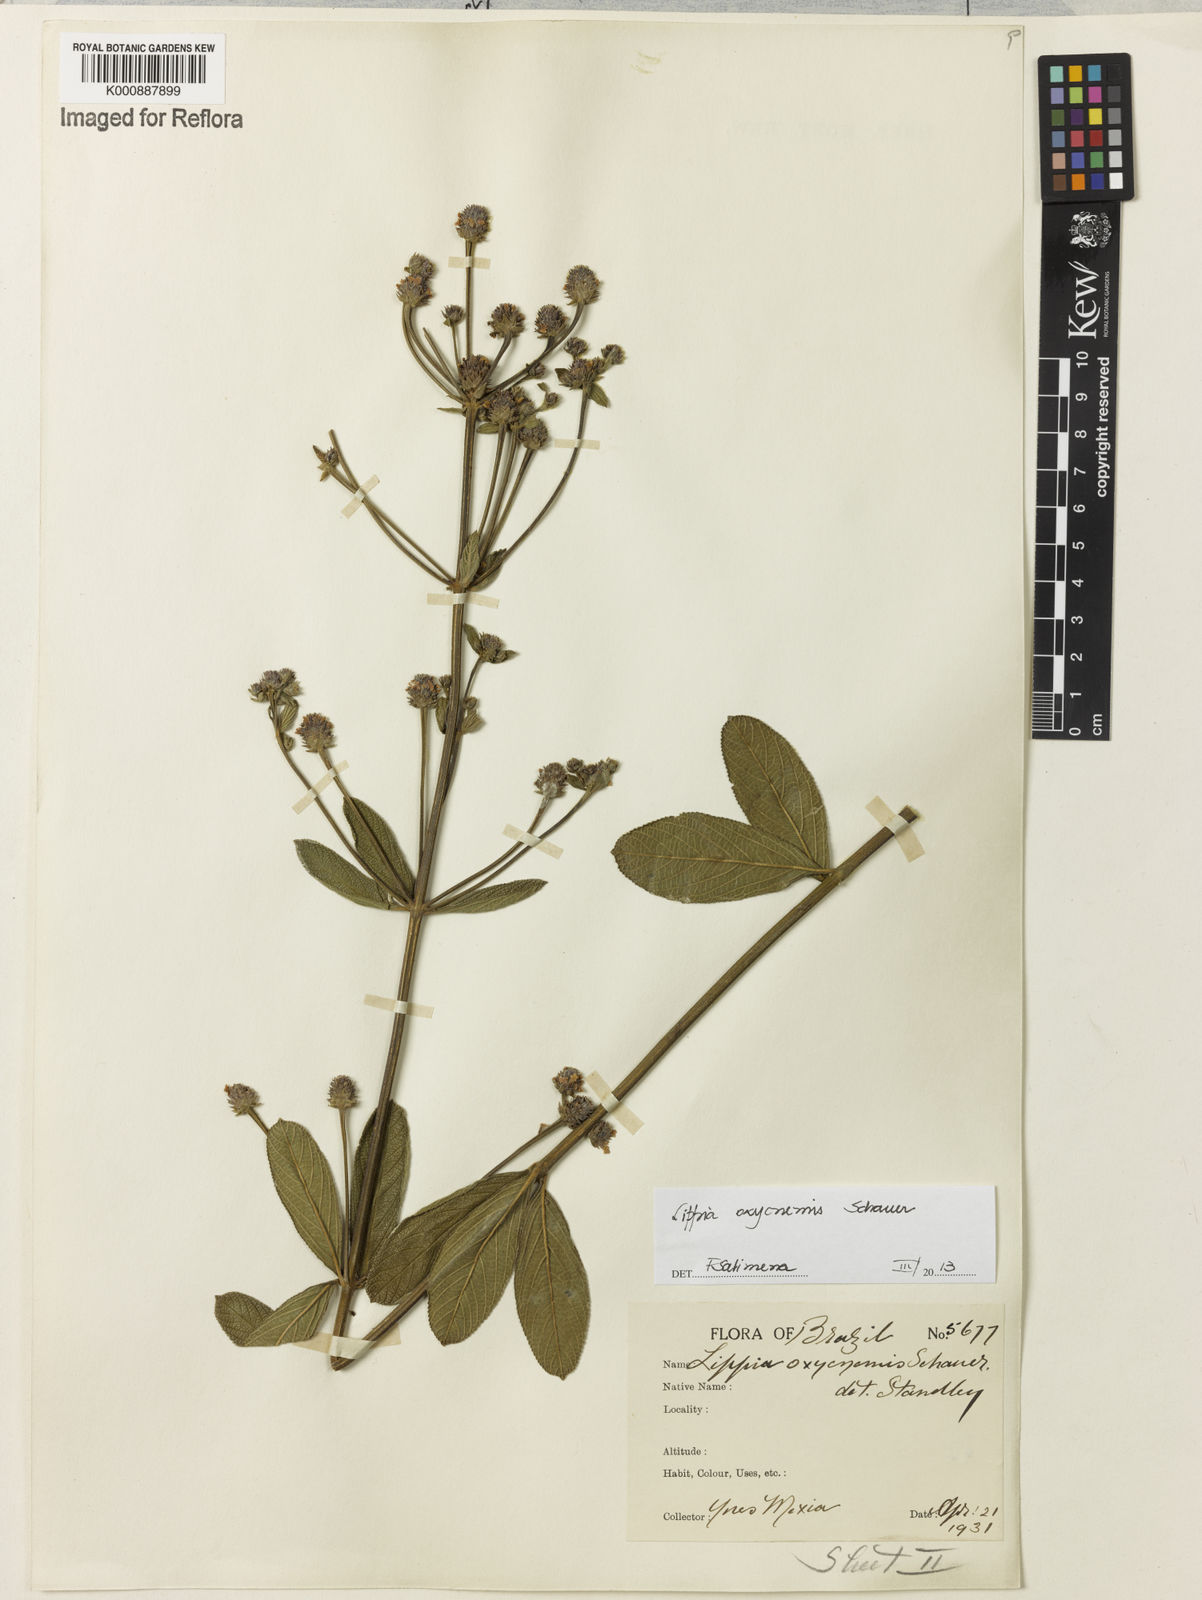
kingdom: Plantae
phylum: Tracheophyta
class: Magnoliopsida
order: Lamiales
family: Verbenaceae
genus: Lippia
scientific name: Lippia oxycnemis
